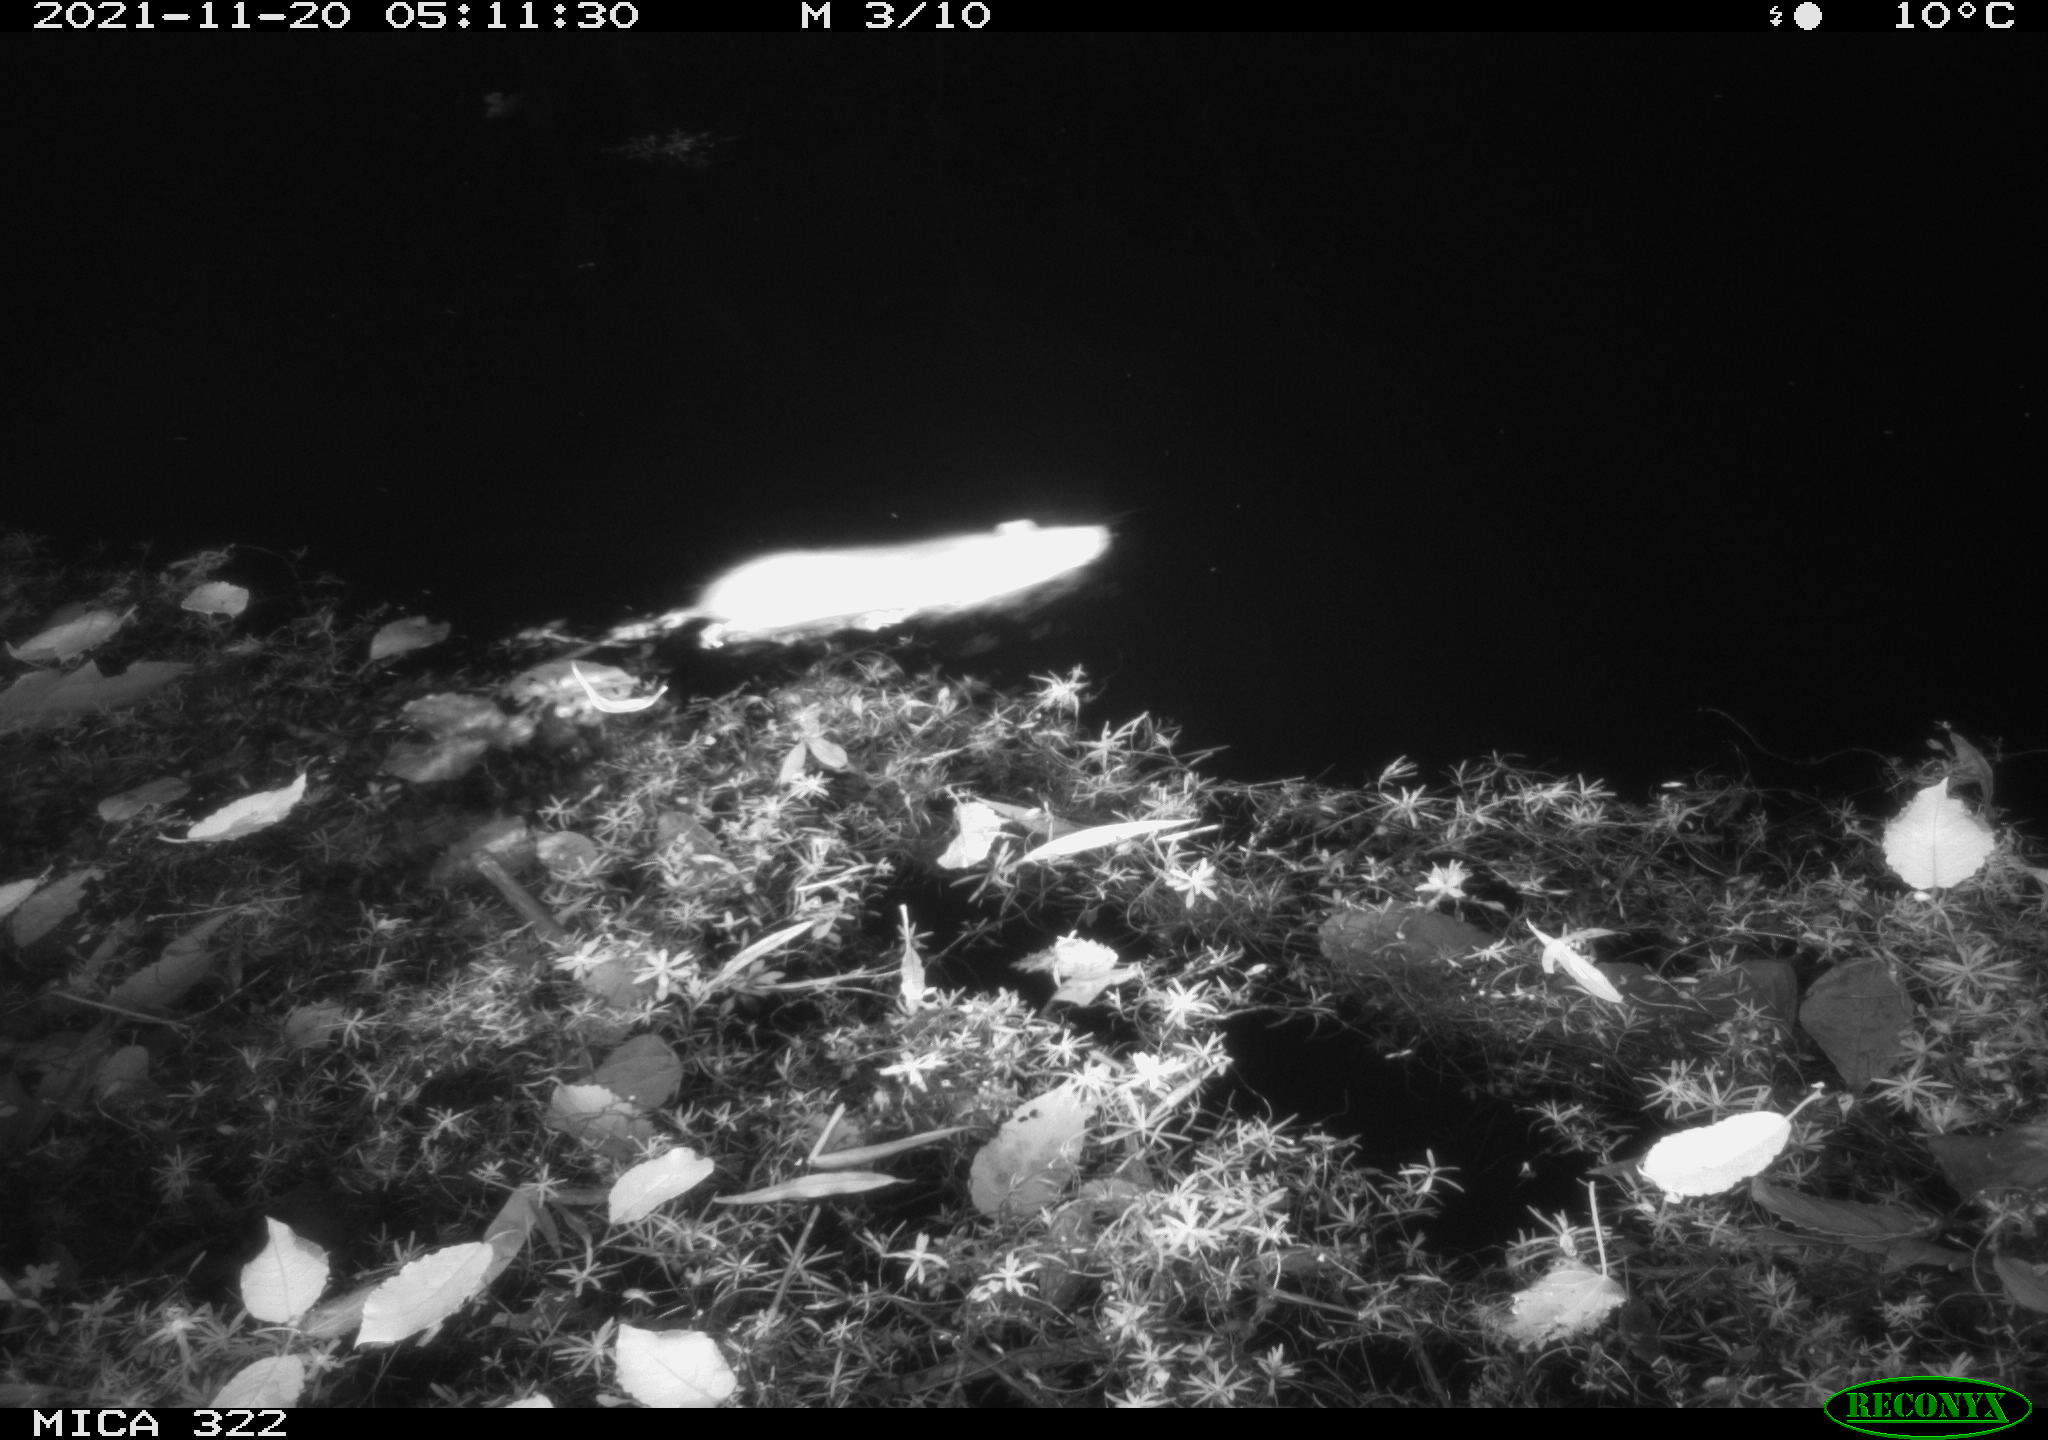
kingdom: Animalia
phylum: Chordata
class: Mammalia
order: Rodentia
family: Muridae
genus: Rattus
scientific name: Rattus norvegicus
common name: Brown rat
